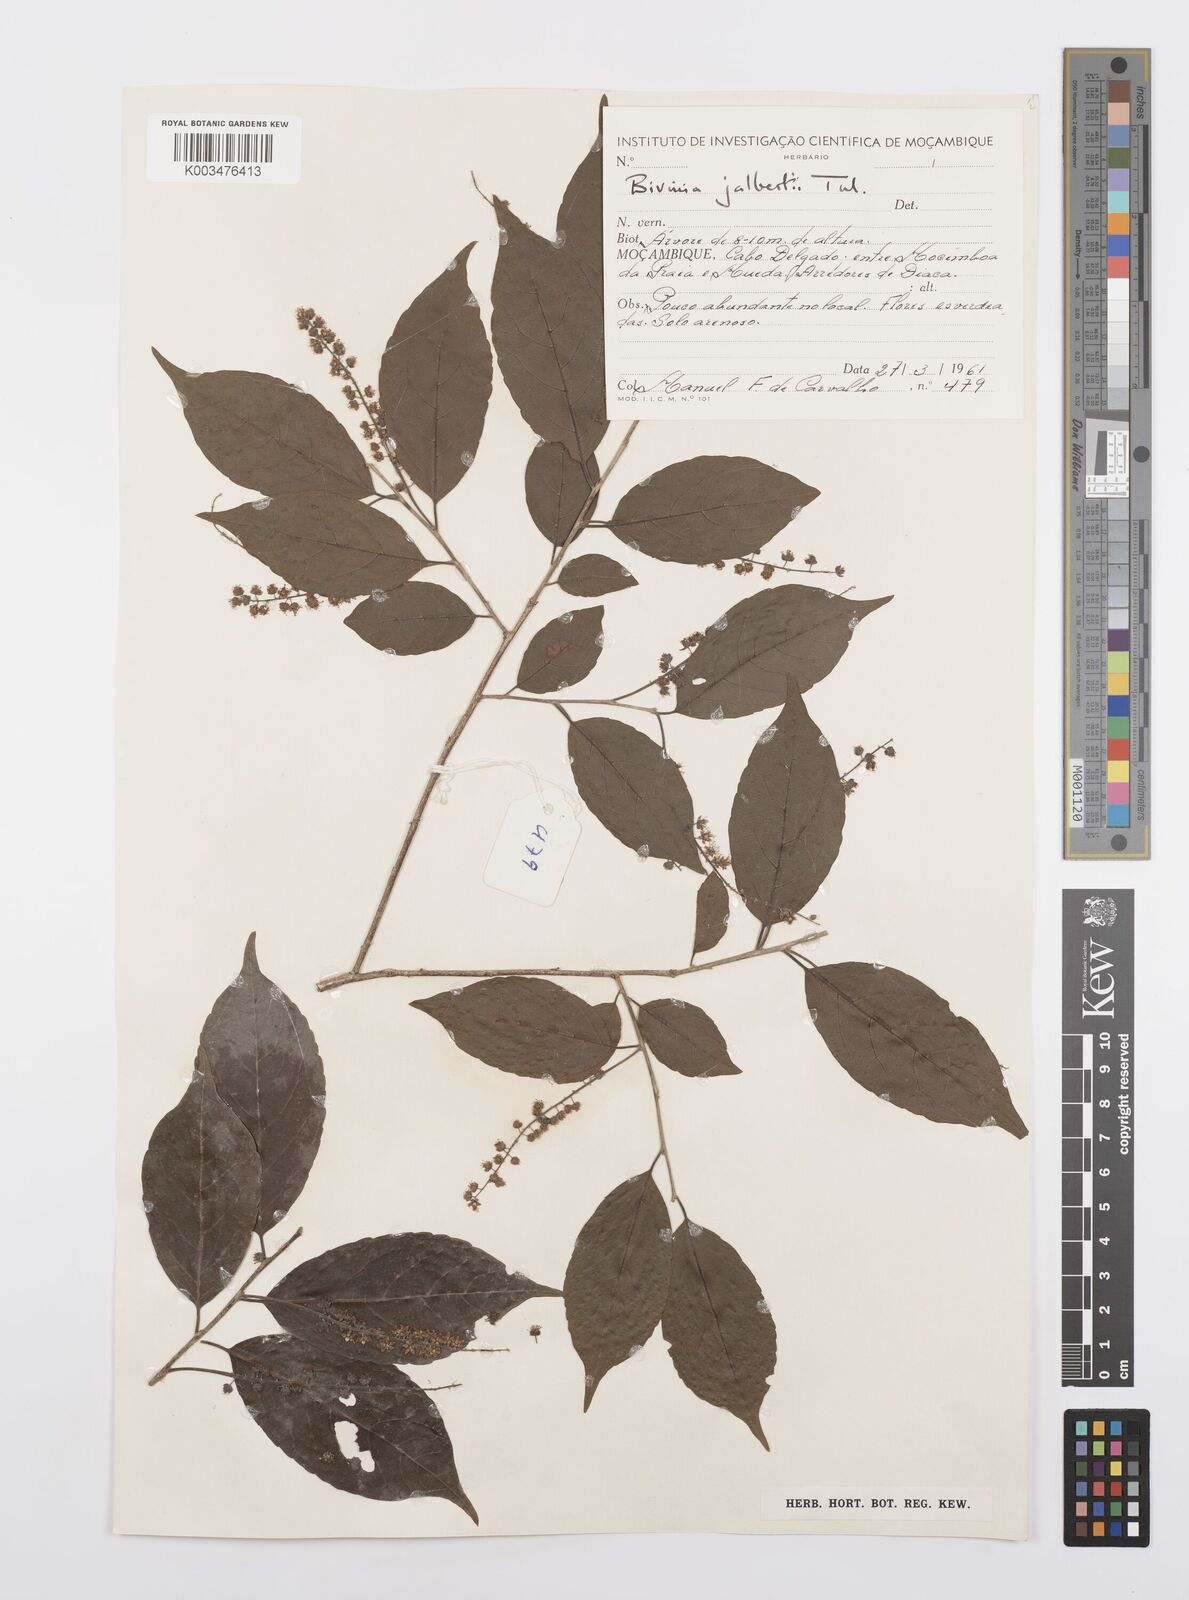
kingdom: Plantae
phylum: Tracheophyta
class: Magnoliopsida
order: Malpighiales
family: Salicaceae
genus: Bivinia
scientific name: Bivinia jalbertii
